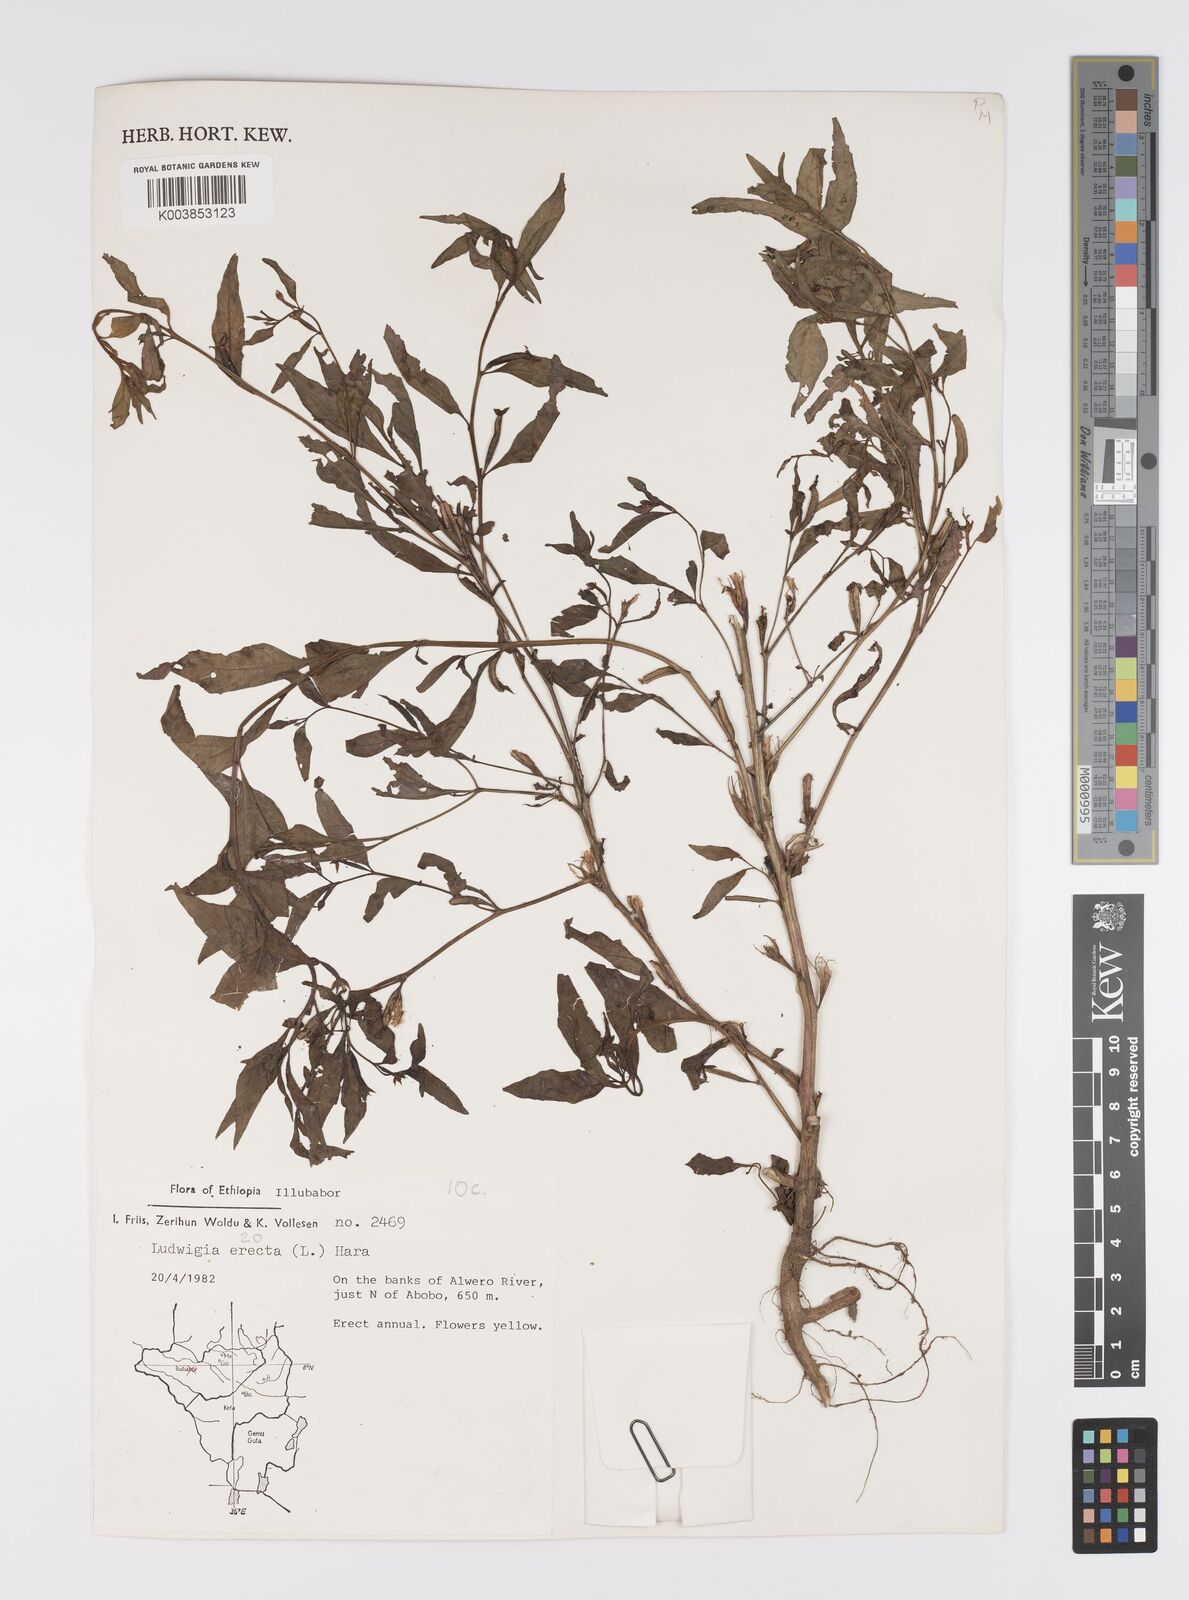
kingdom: Plantae
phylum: Tracheophyta
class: Magnoliopsida
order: Myrtales
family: Onagraceae
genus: Ludwigia
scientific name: Ludwigia erecta
